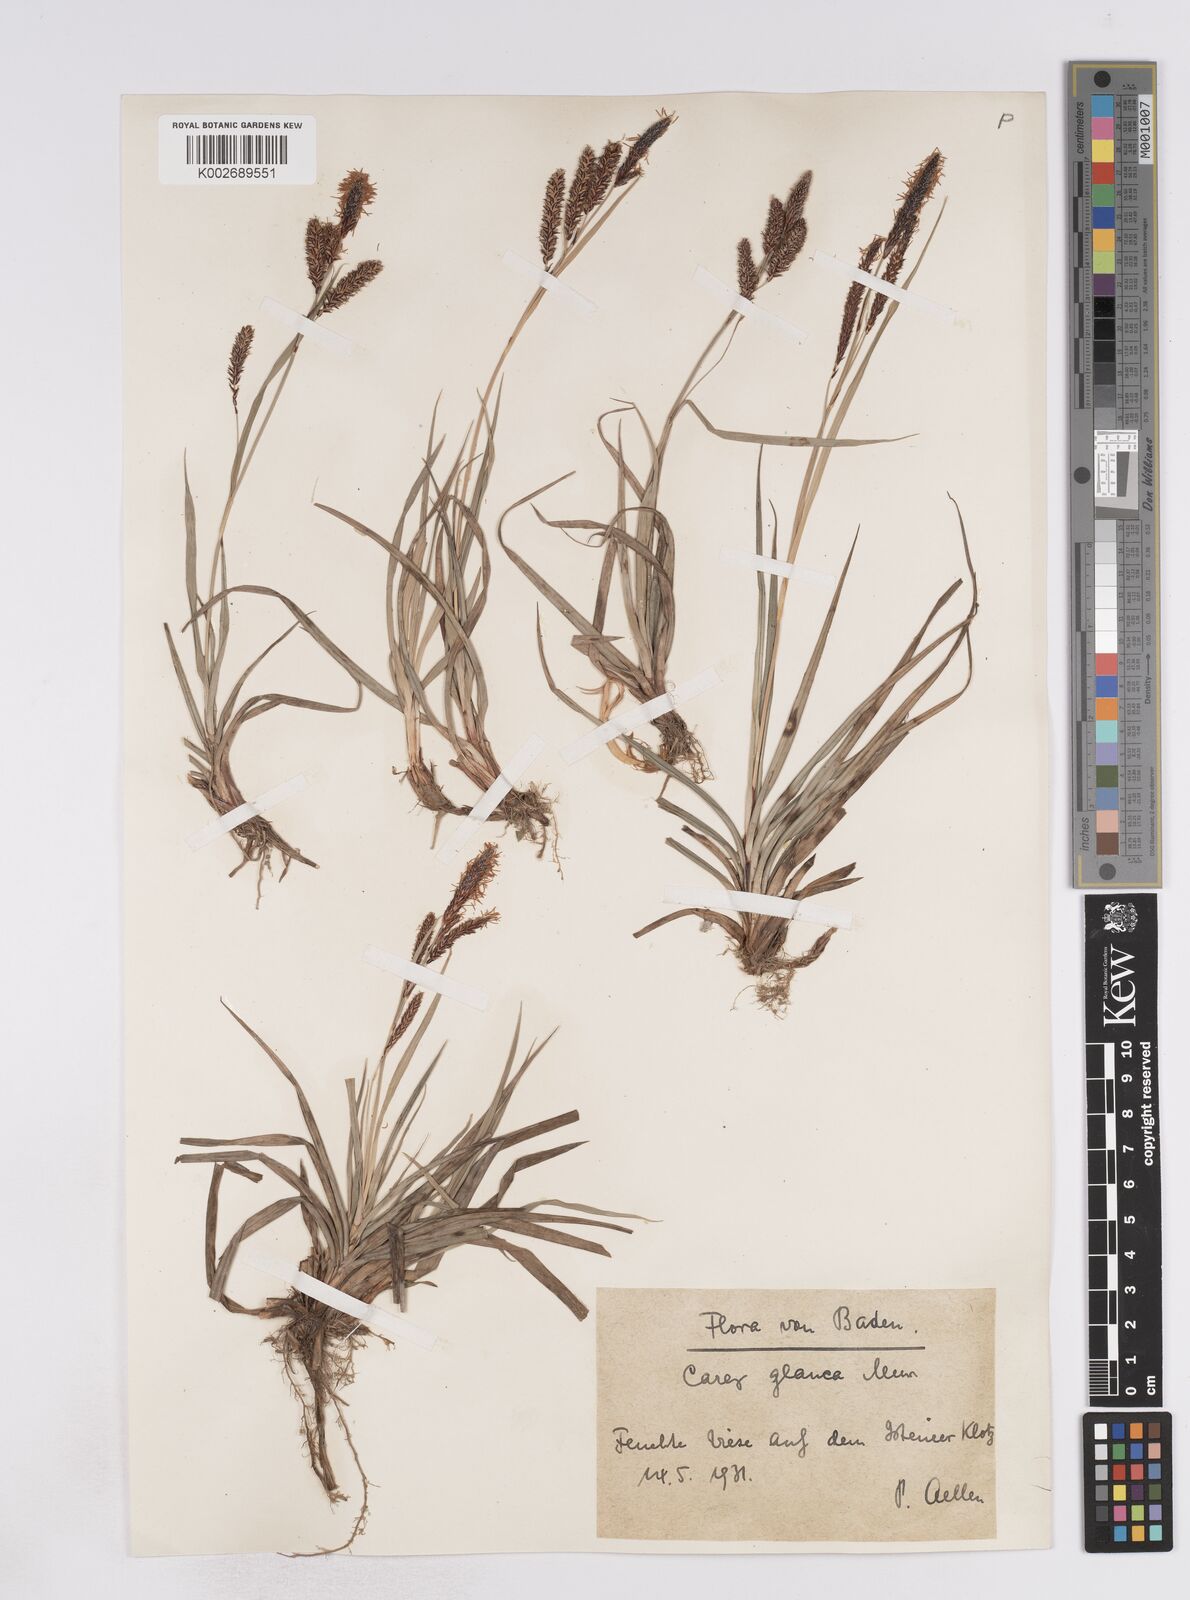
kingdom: Plantae
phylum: Tracheophyta
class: Liliopsida
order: Poales
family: Cyperaceae
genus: Carex
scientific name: Carex flacca
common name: Glaucous sedge
